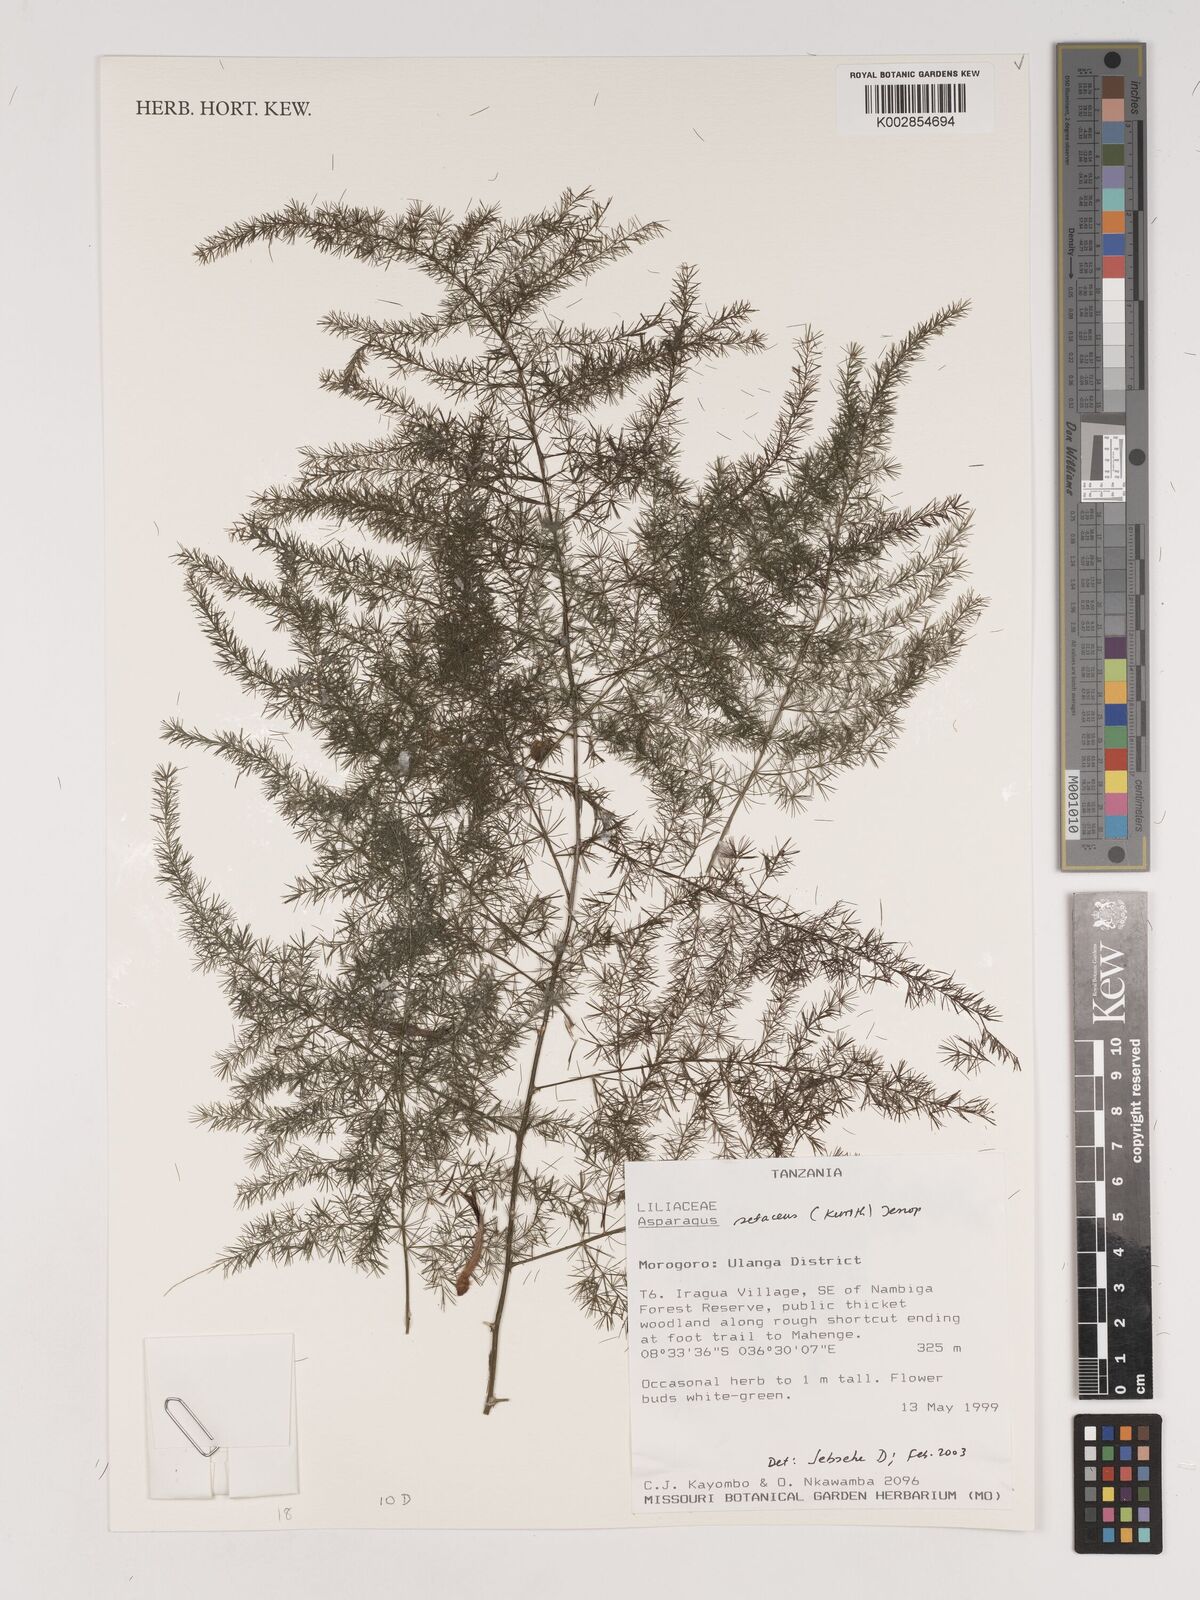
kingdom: Plantae
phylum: Tracheophyta
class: Liliopsida
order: Asparagales
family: Asparagaceae
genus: Asparagus
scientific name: Asparagus setaceus
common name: Common asparagus fern
